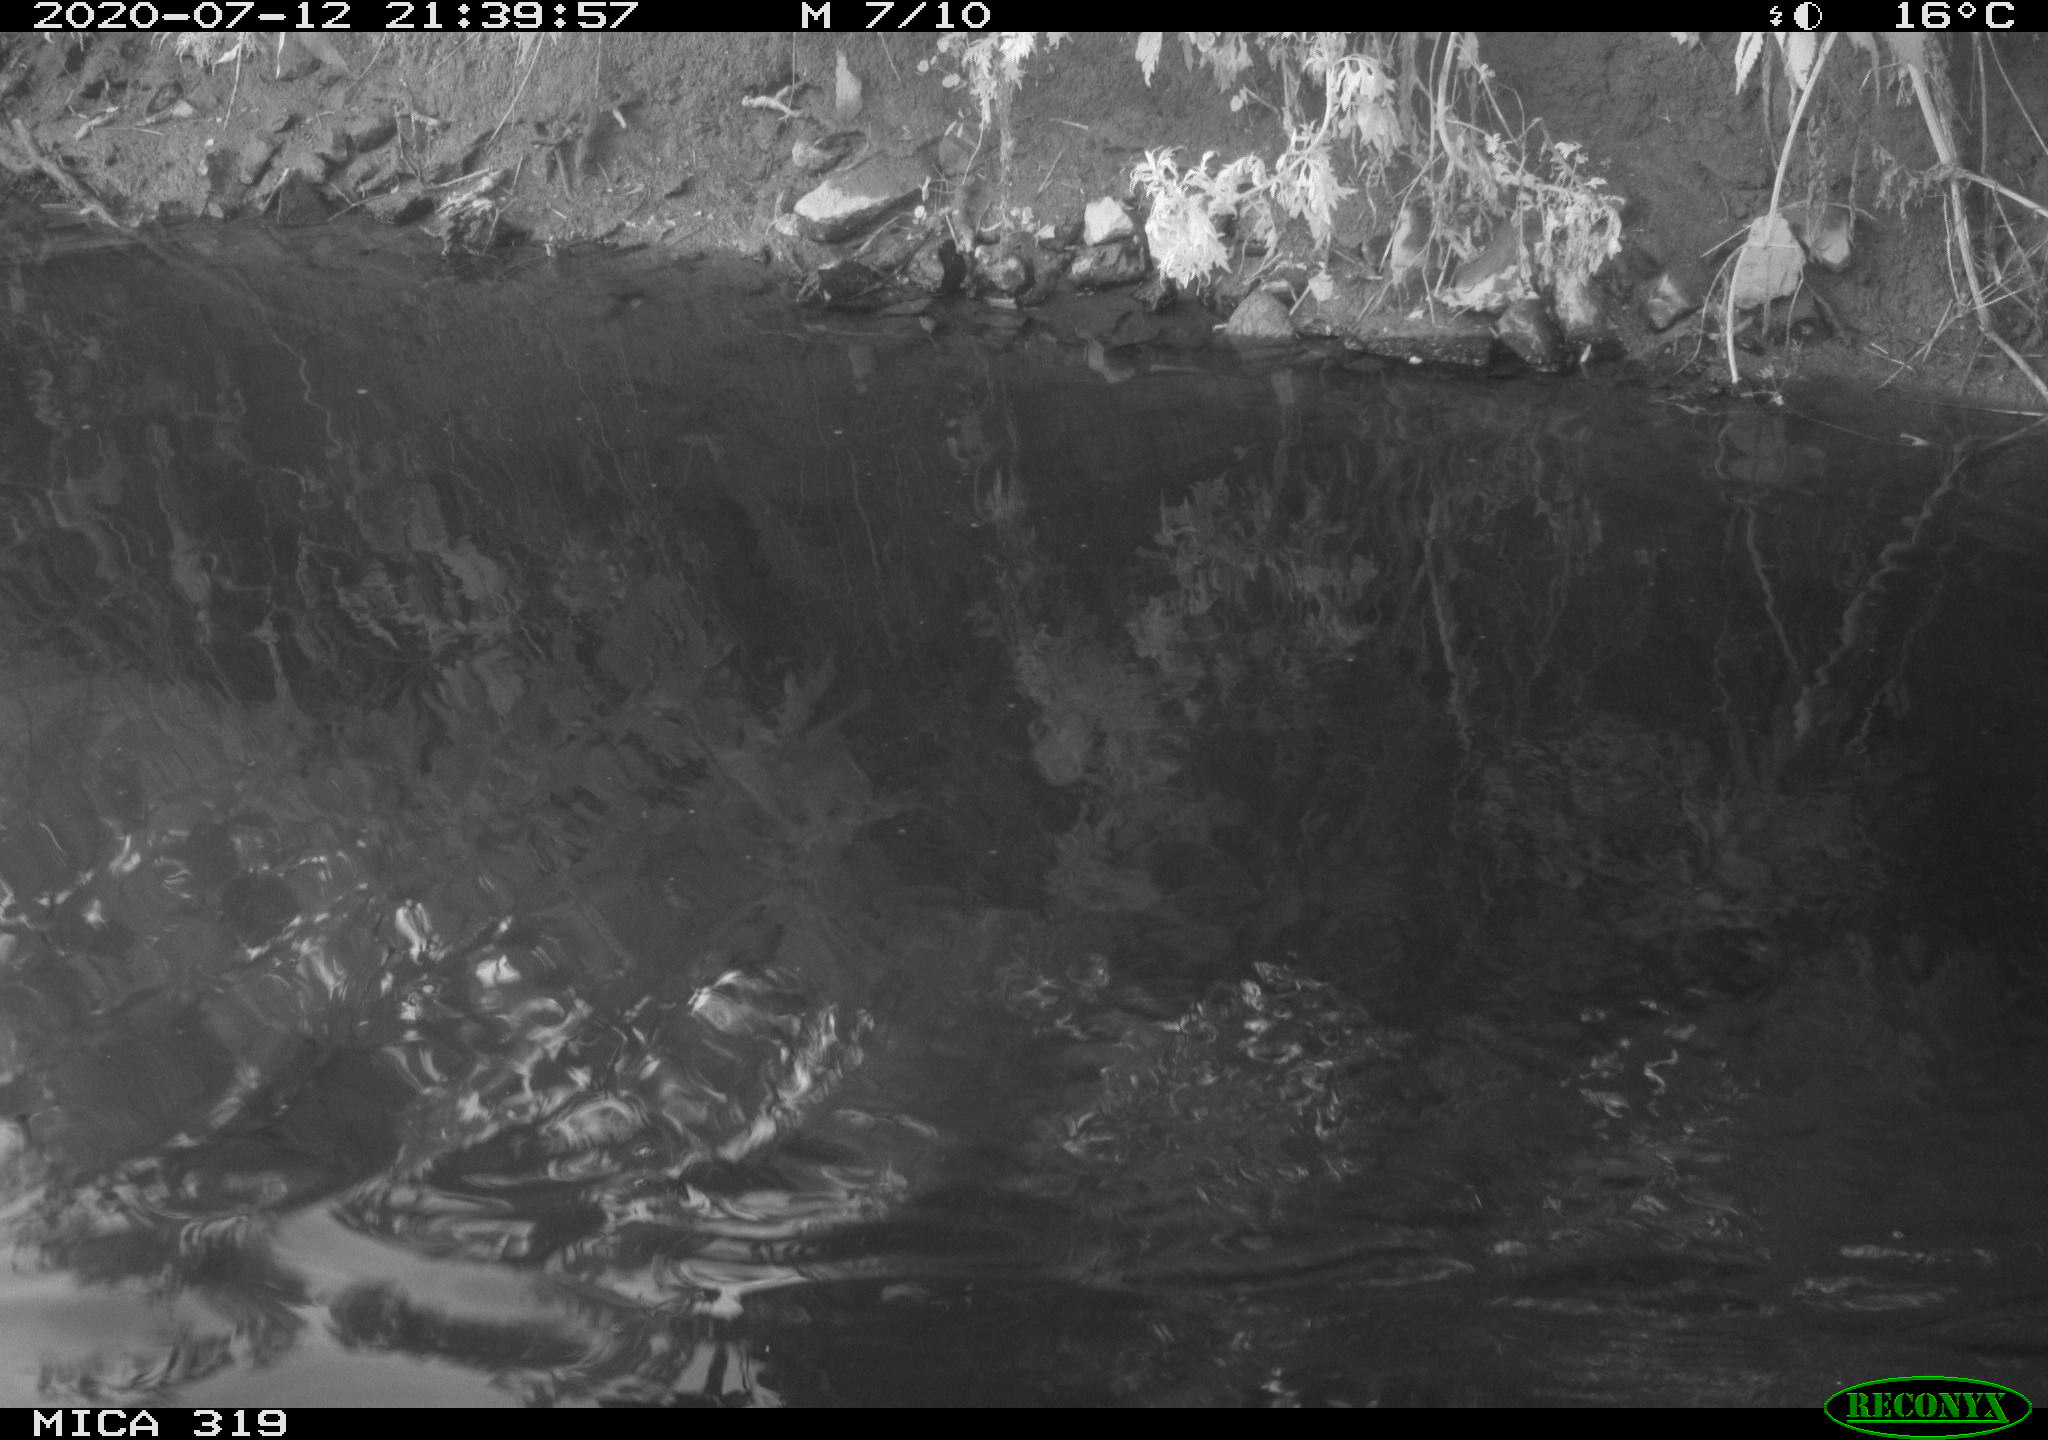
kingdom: Animalia
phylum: Chordata
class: Aves
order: Anseriformes
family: Anatidae
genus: Anas
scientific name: Anas platyrhynchos
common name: Mallard
